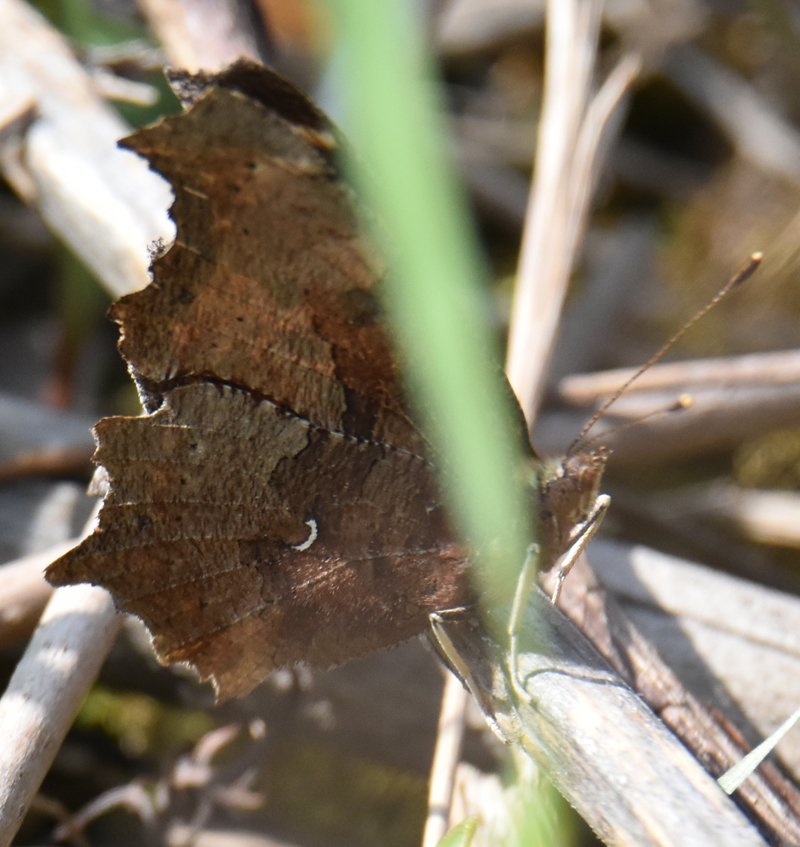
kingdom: Animalia
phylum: Arthropoda
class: Insecta
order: Lepidoptera
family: Nymphalidae
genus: Polygonia
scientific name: Polygonia comma
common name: Eastern Comma
